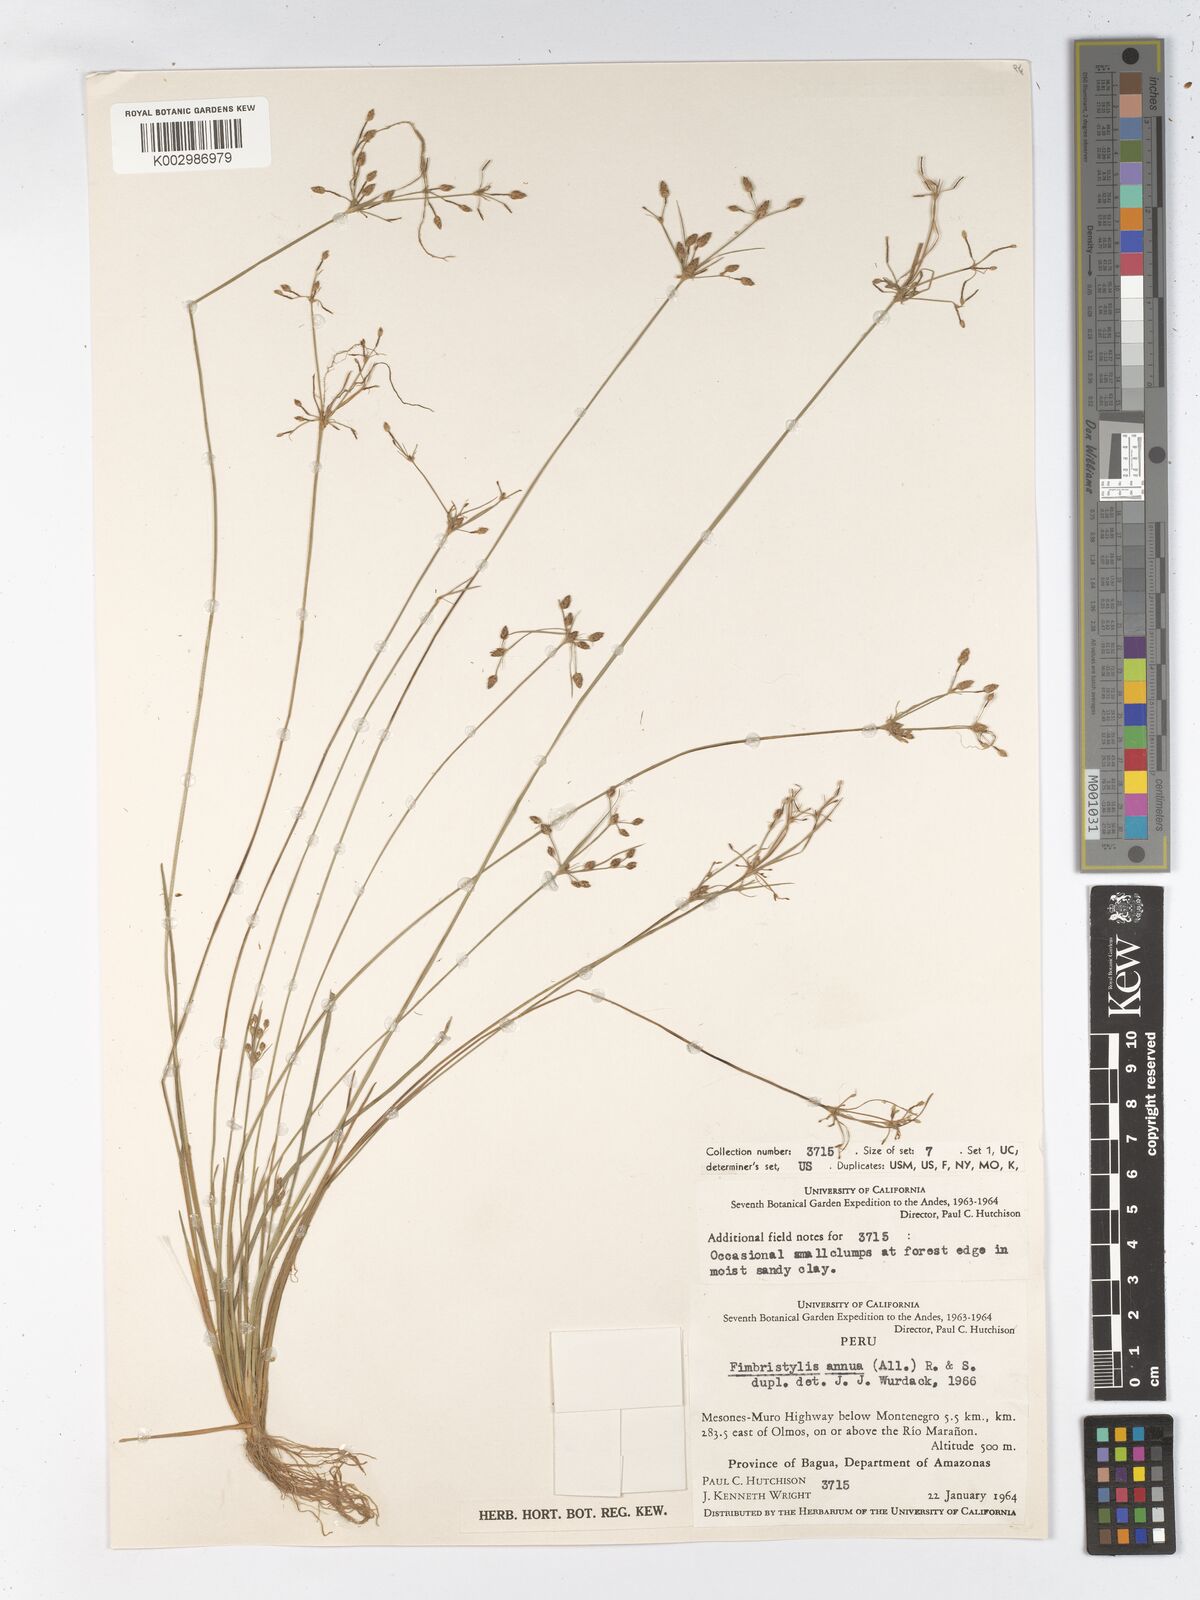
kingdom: Plantae
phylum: Tracheophyta
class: Liliopsida
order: Poales
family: Cyperaceae
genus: Fimbristylis
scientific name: Fimbristylis dichotoma
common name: Forked fimbry
